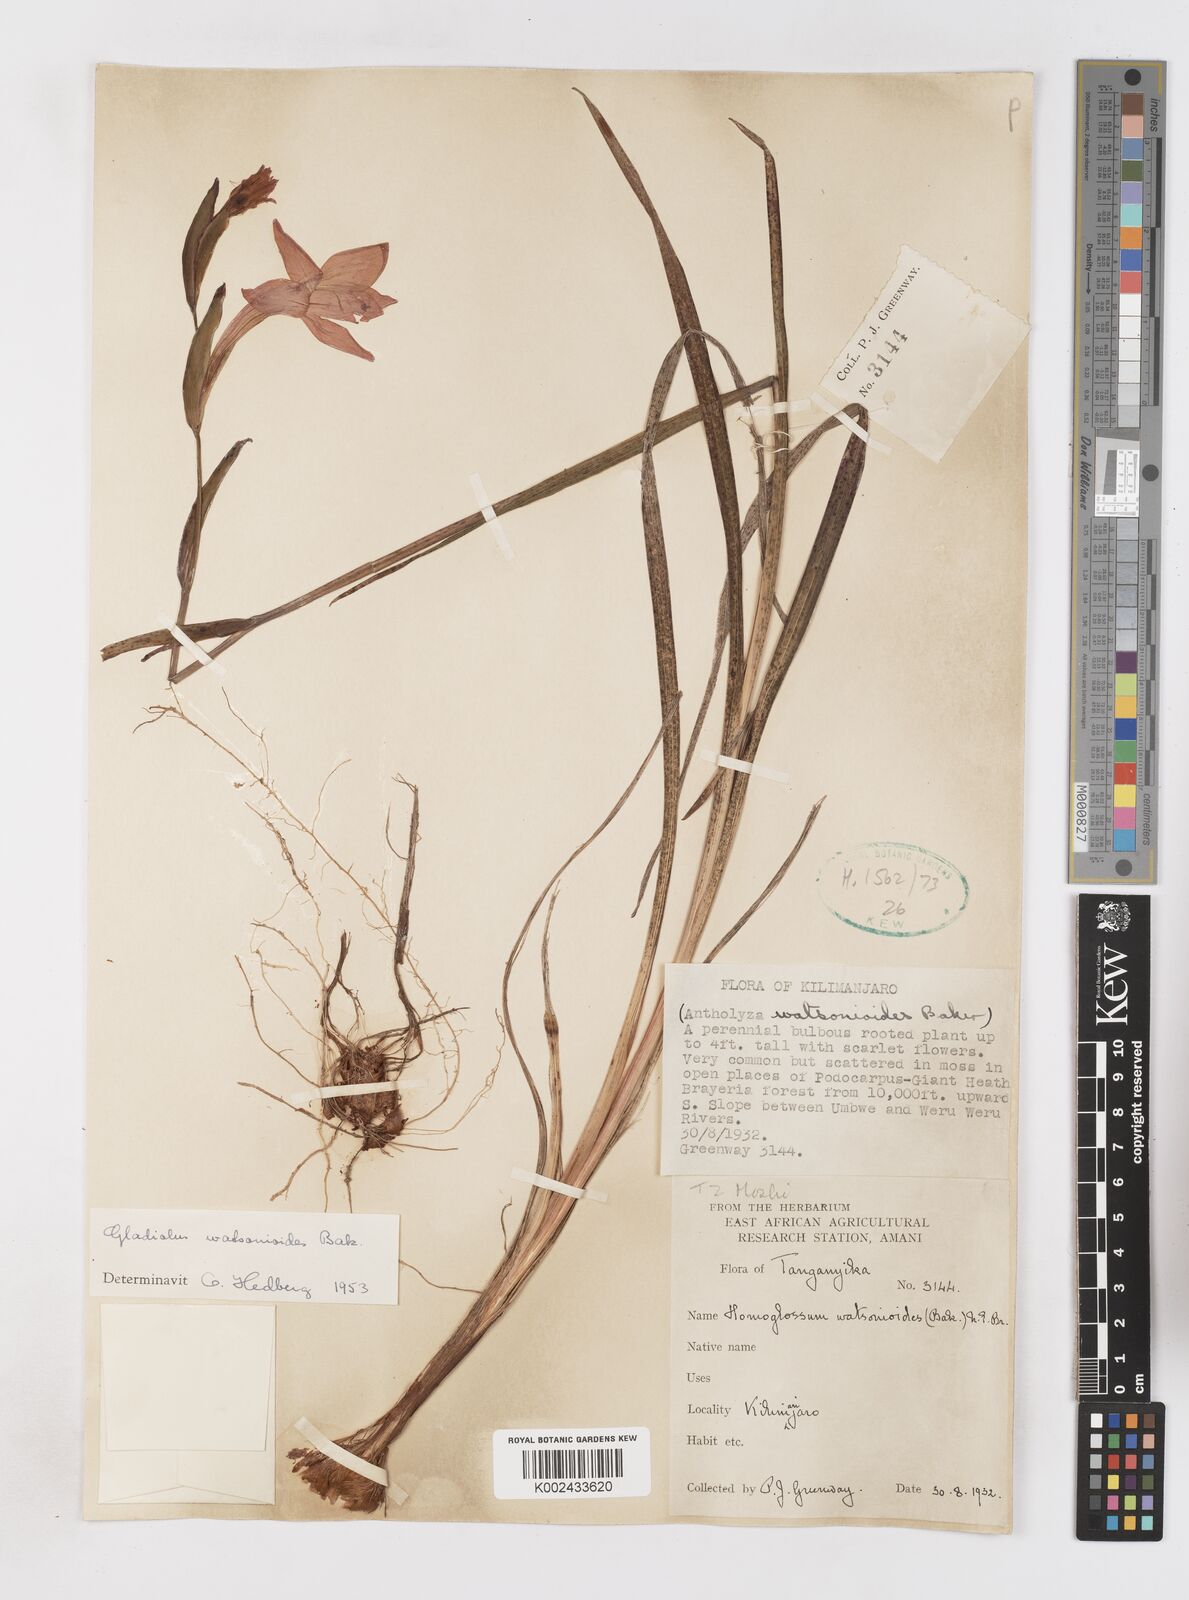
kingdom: Plantae
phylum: Tracheophyta
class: Liliopsida
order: Asparagales
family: Iridaceae
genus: Gladiolus
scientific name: Gladiolus watsonioides
